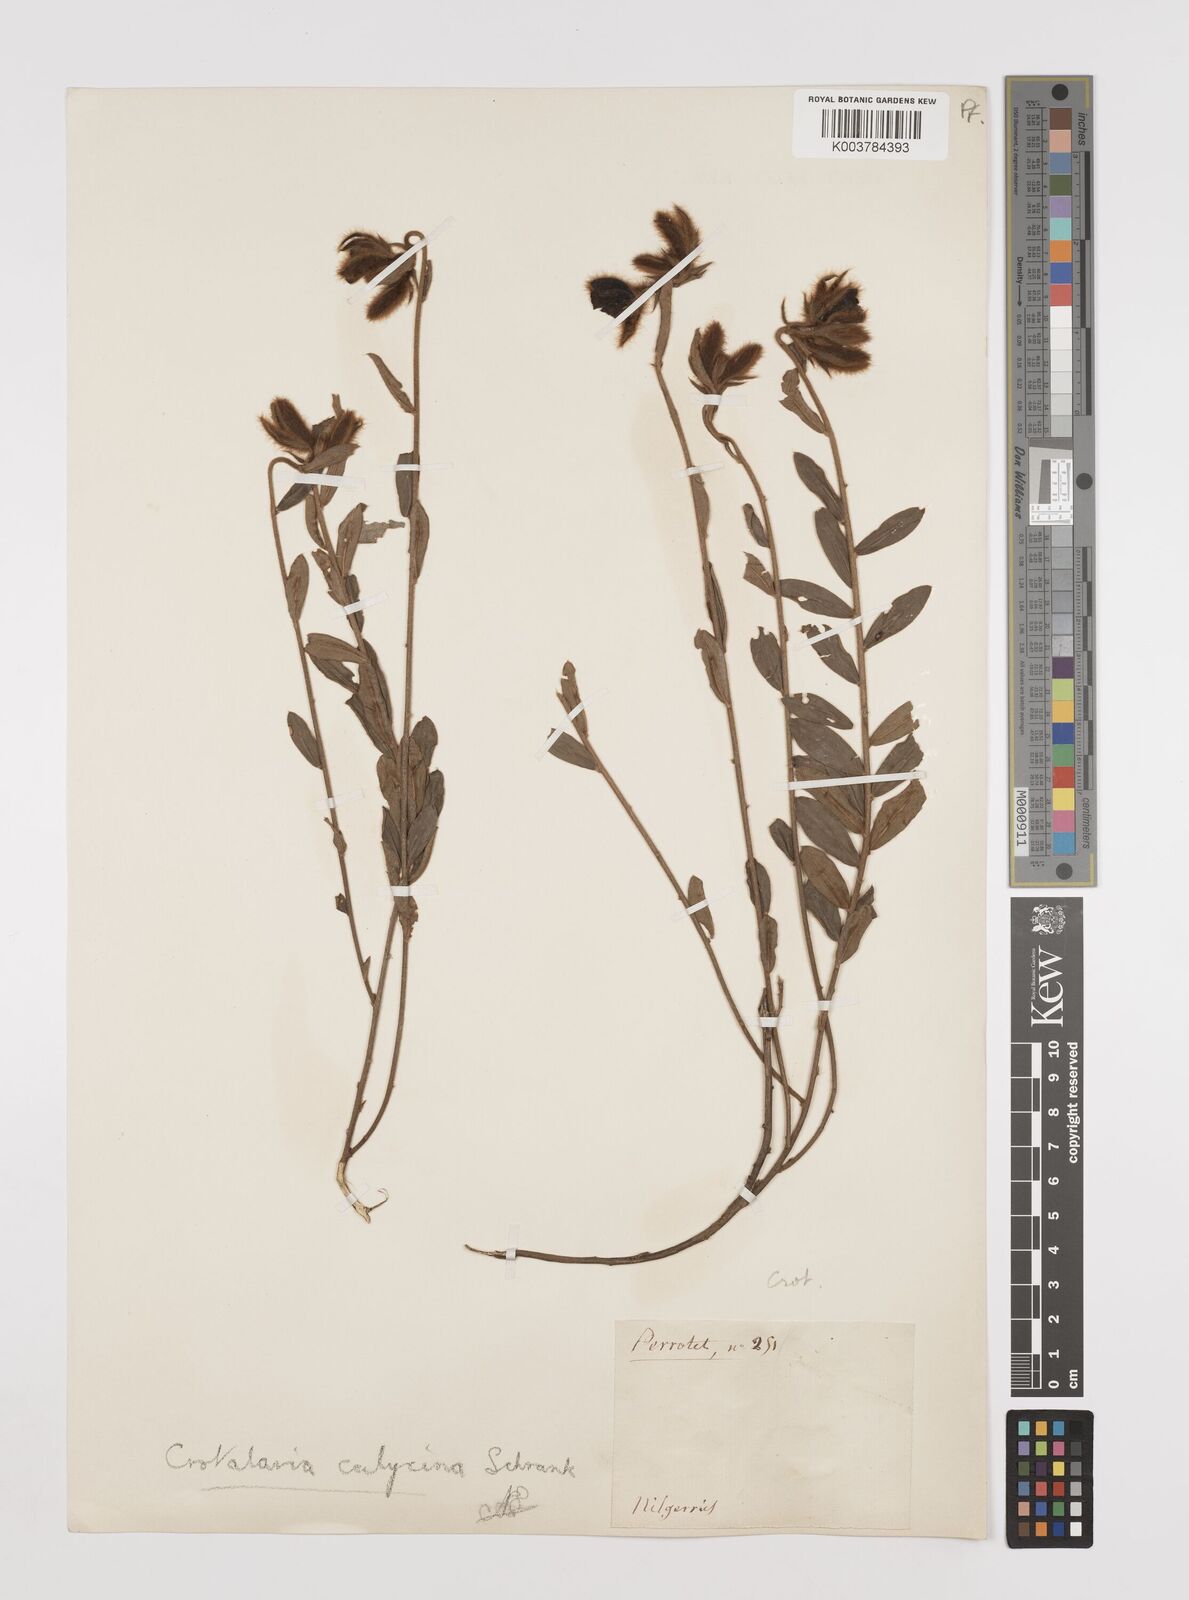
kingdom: Plantae
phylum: Tracheophyta
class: Magnoliopsida
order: Fabales
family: Fabaceae
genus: Crotalaria
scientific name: Crotalaria calycina
